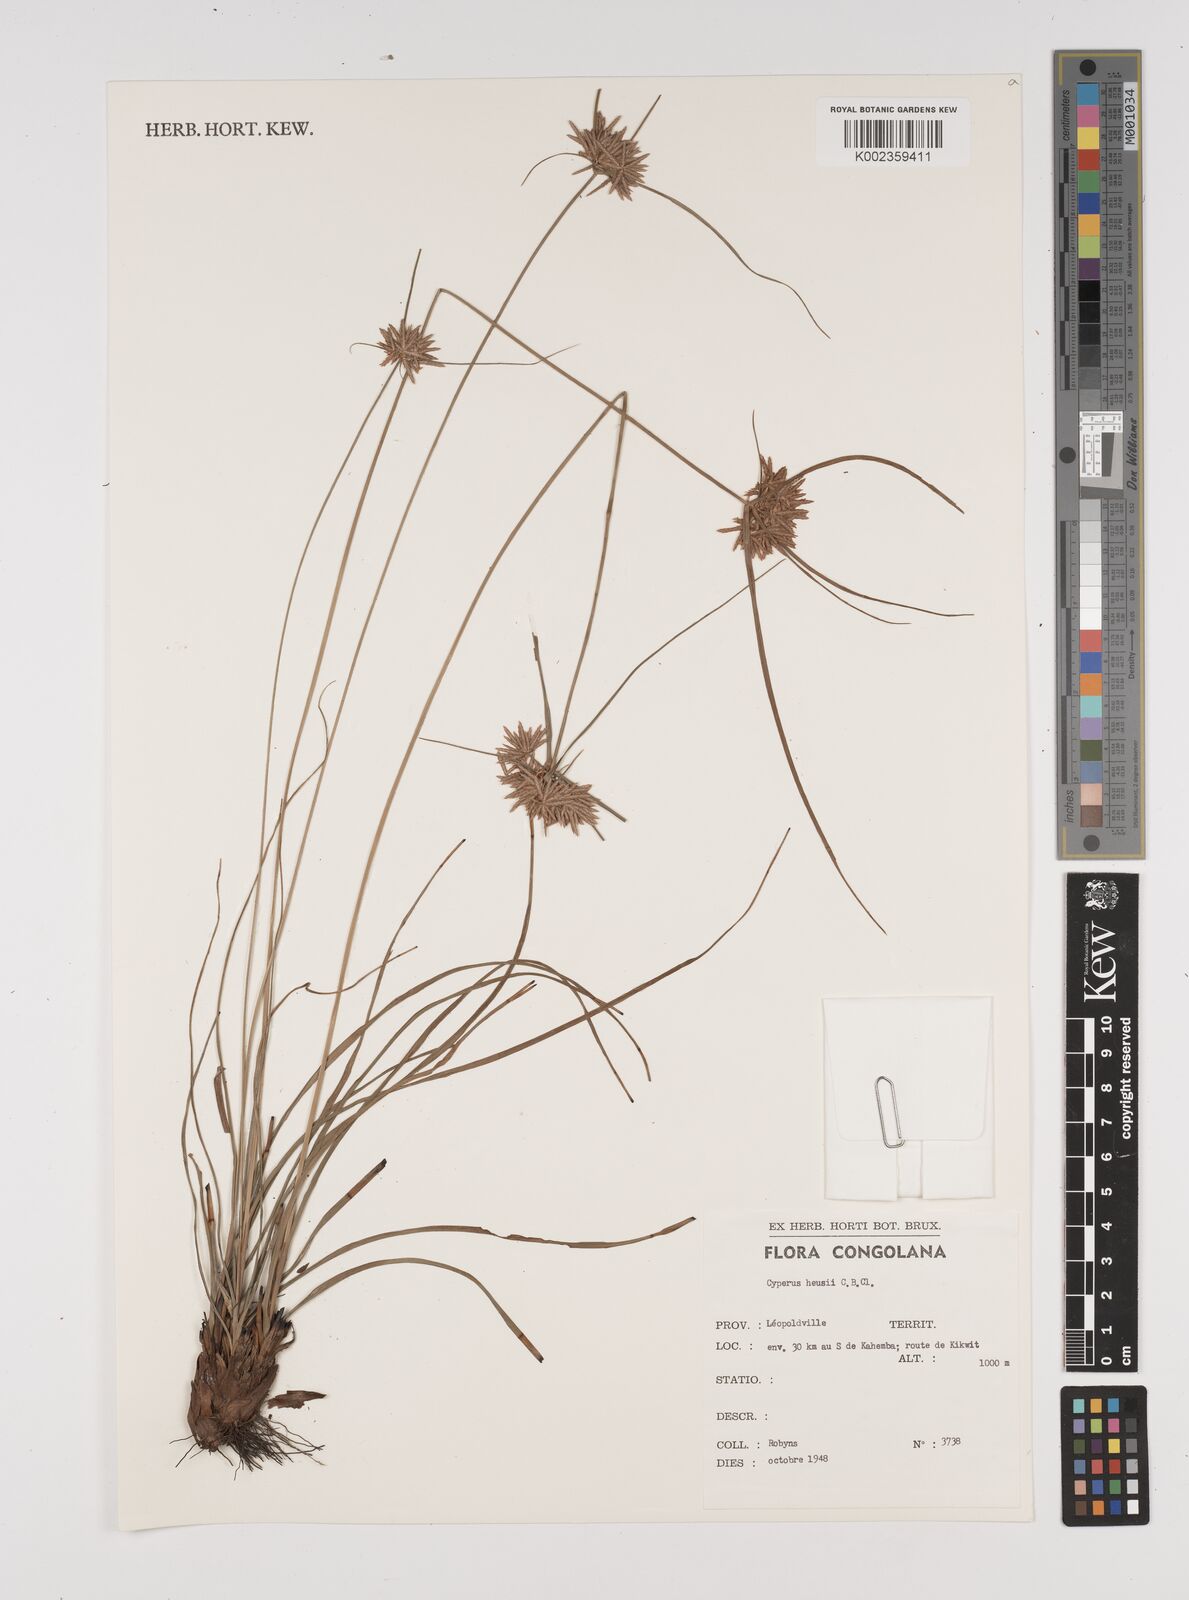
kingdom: Plantae
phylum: Tracheophyta
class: Liliopsida
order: Poales
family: Cyperaceae
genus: Cyperus
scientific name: Cyperus hensii
